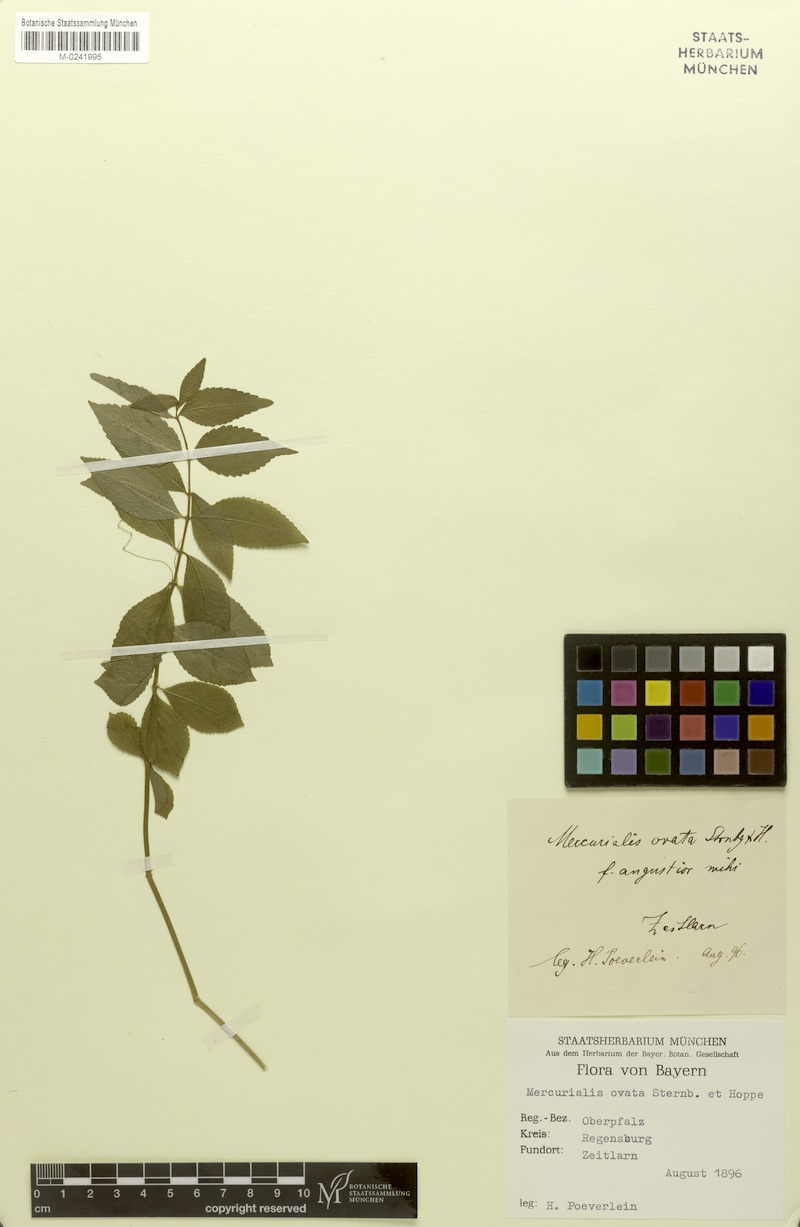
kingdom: Plantae
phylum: Tracheophyta
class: Magnoliopsida
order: Malpighiales
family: Euphorbiaceae
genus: Mercurialis
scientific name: Mercurialis ovata
